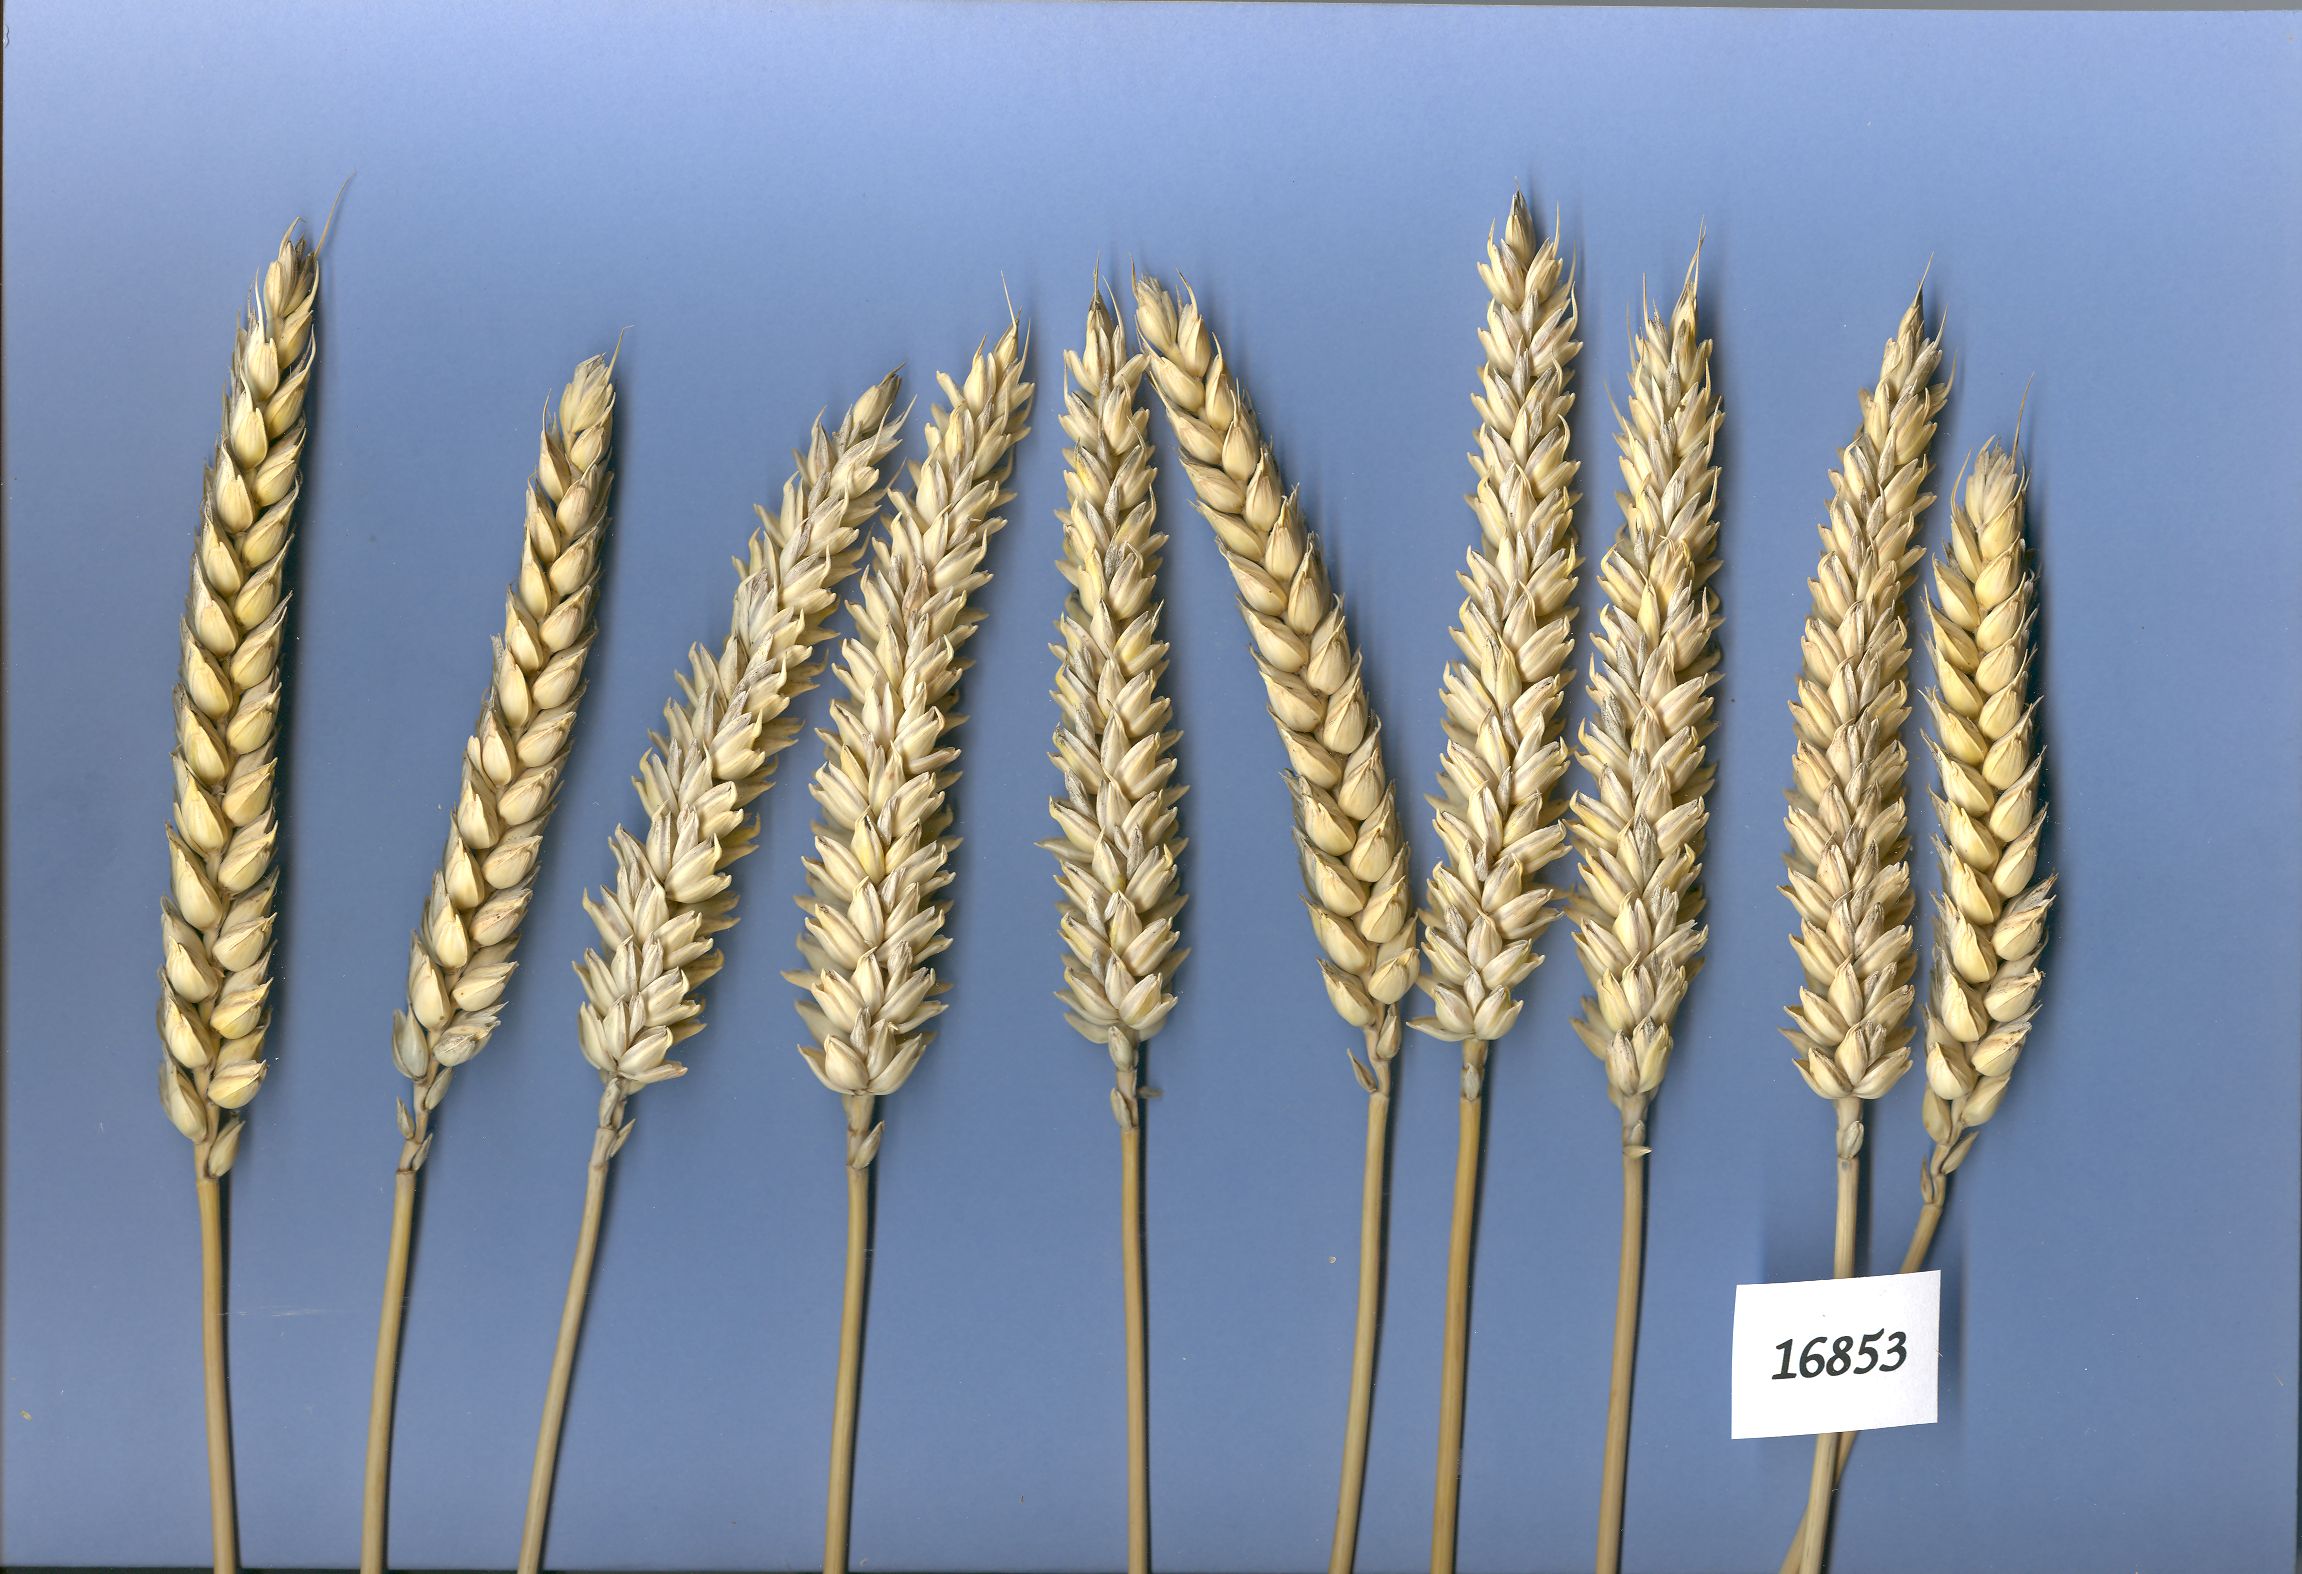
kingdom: Plantae
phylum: Tracheophyta
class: Liliopsida
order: Poales
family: Poaceae
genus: Triticum
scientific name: Triticum aestivum
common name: Common wheat
